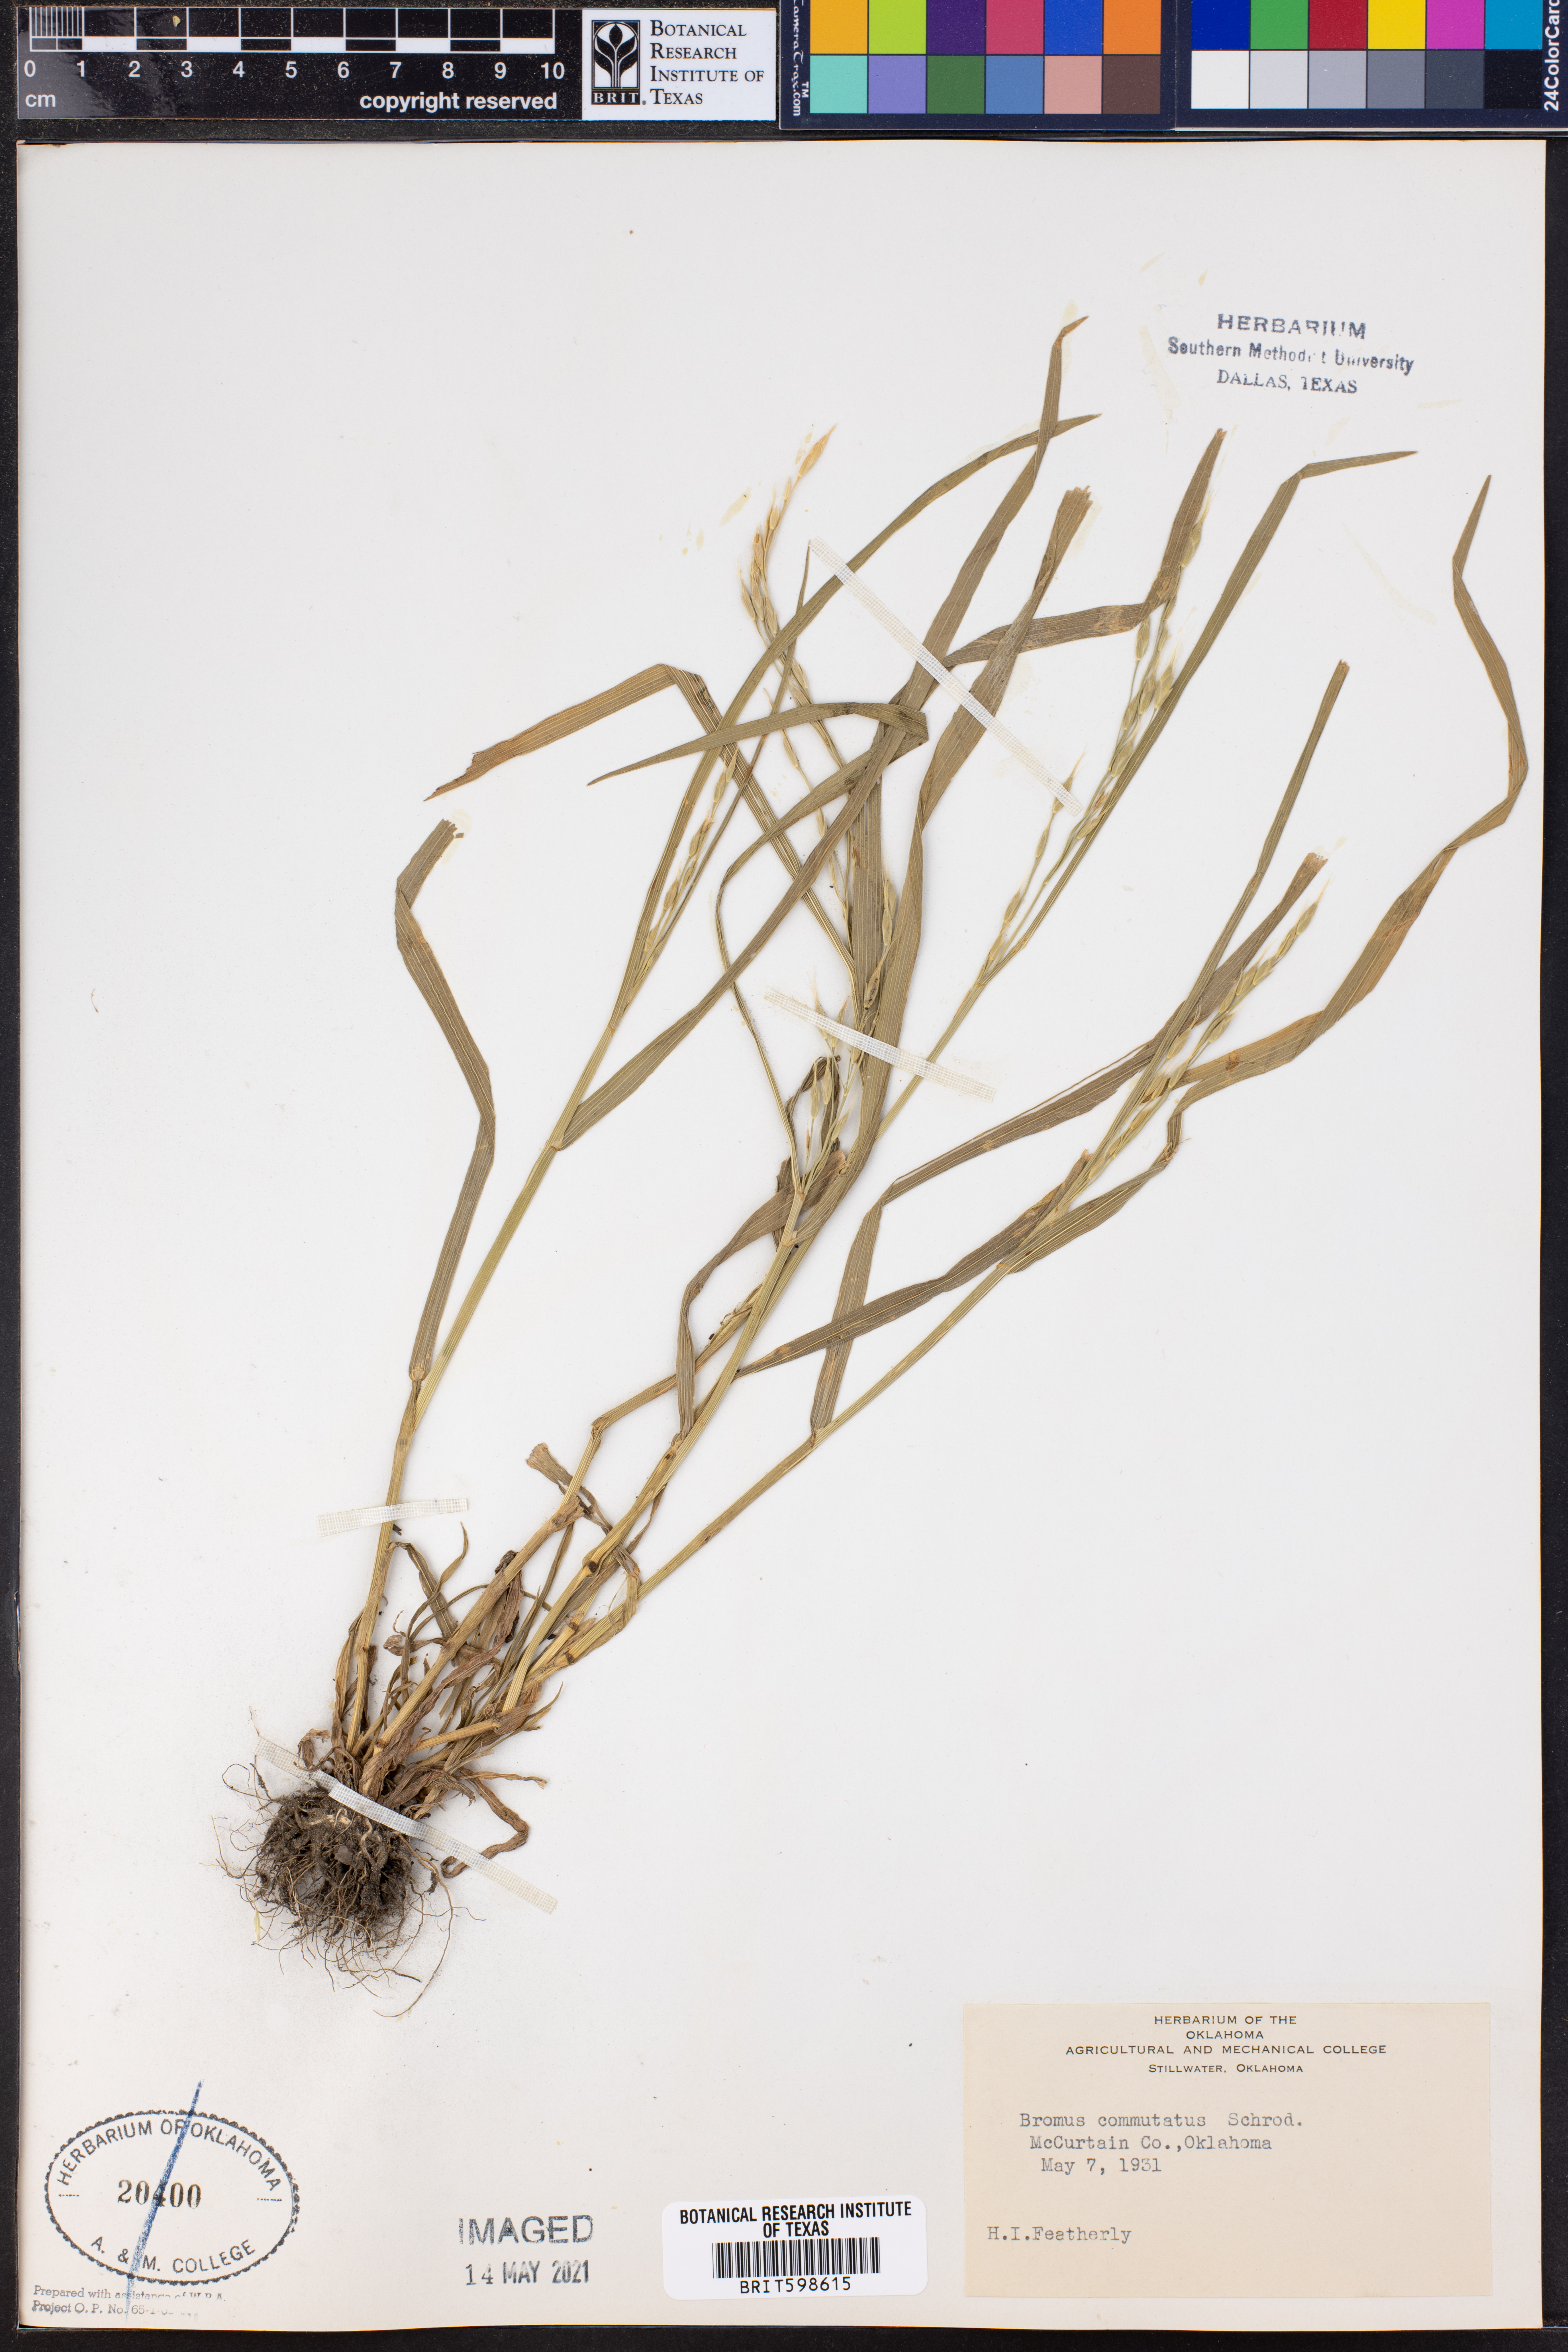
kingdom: Plantae
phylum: Tracheophyta
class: Liliopsida
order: Poales
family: Poaceae
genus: Bromus
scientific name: Bromus commutatus
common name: Meadow brome
